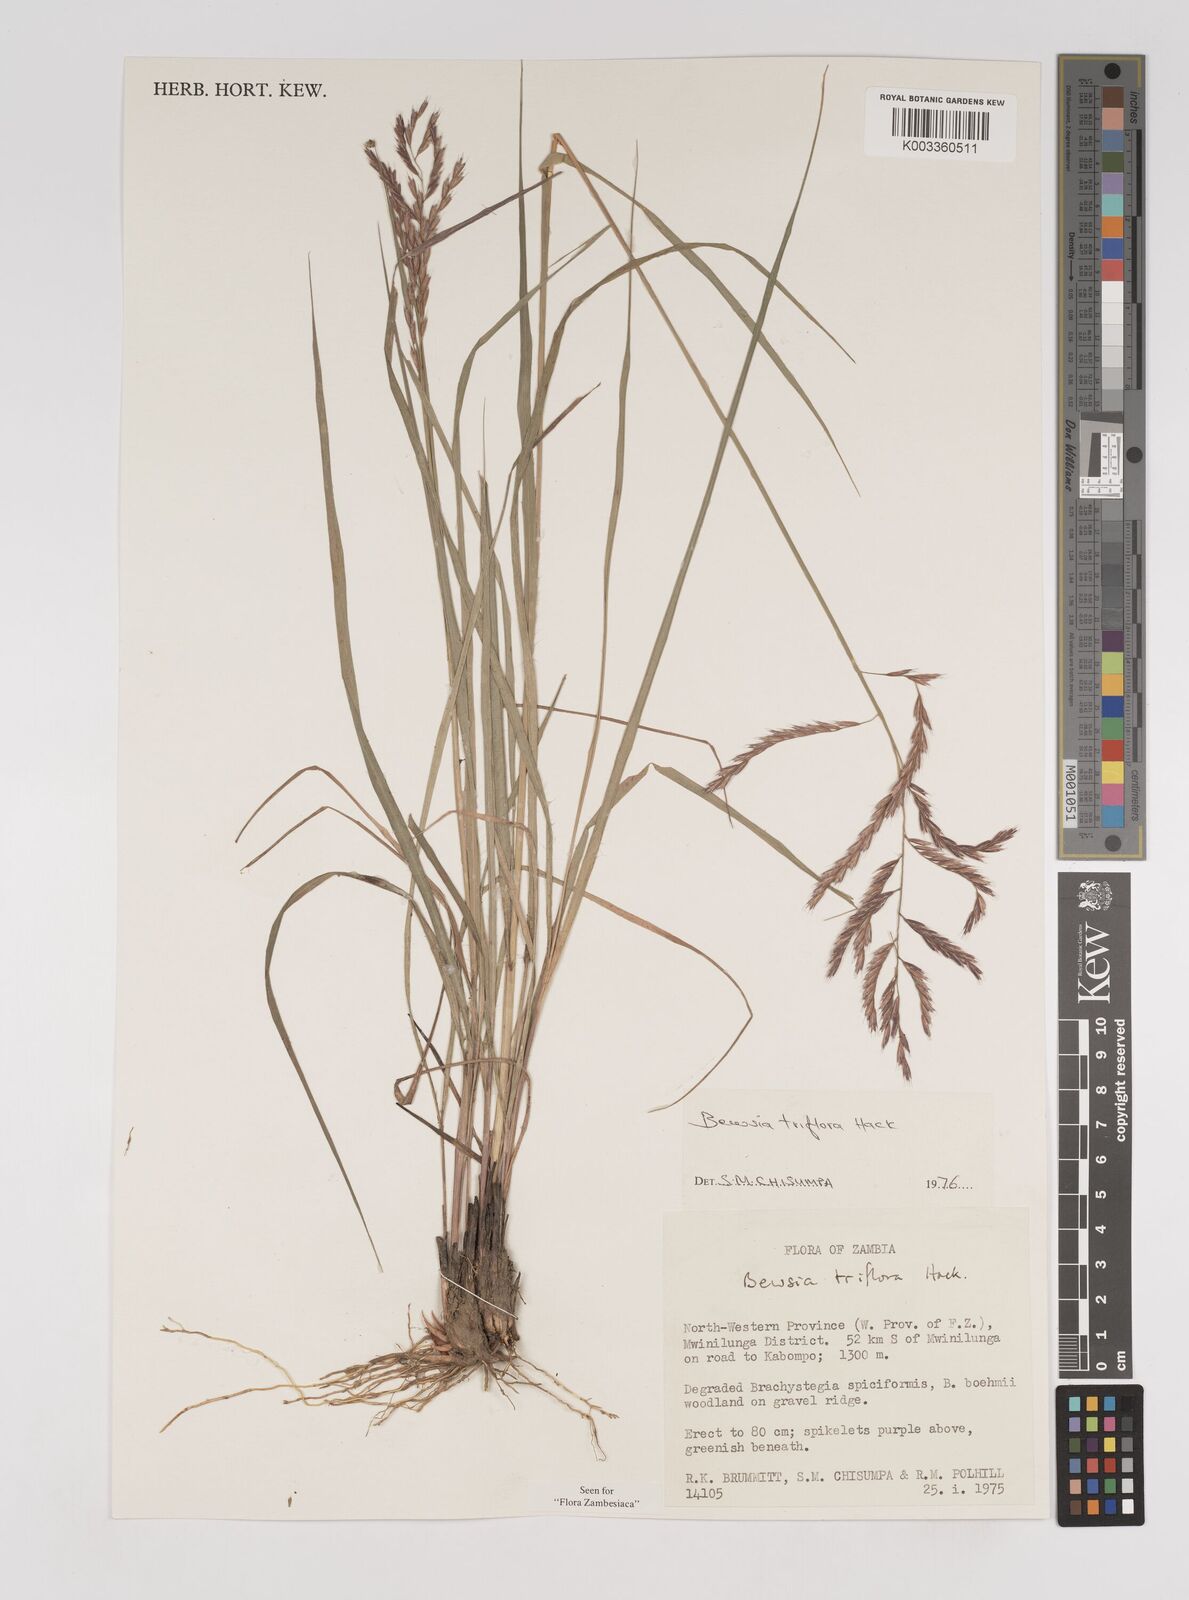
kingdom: Plantae
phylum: Tracheophyta
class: Liliopsida
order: Poales
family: Poaceae
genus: Bewsia
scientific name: Bewsia biflora
